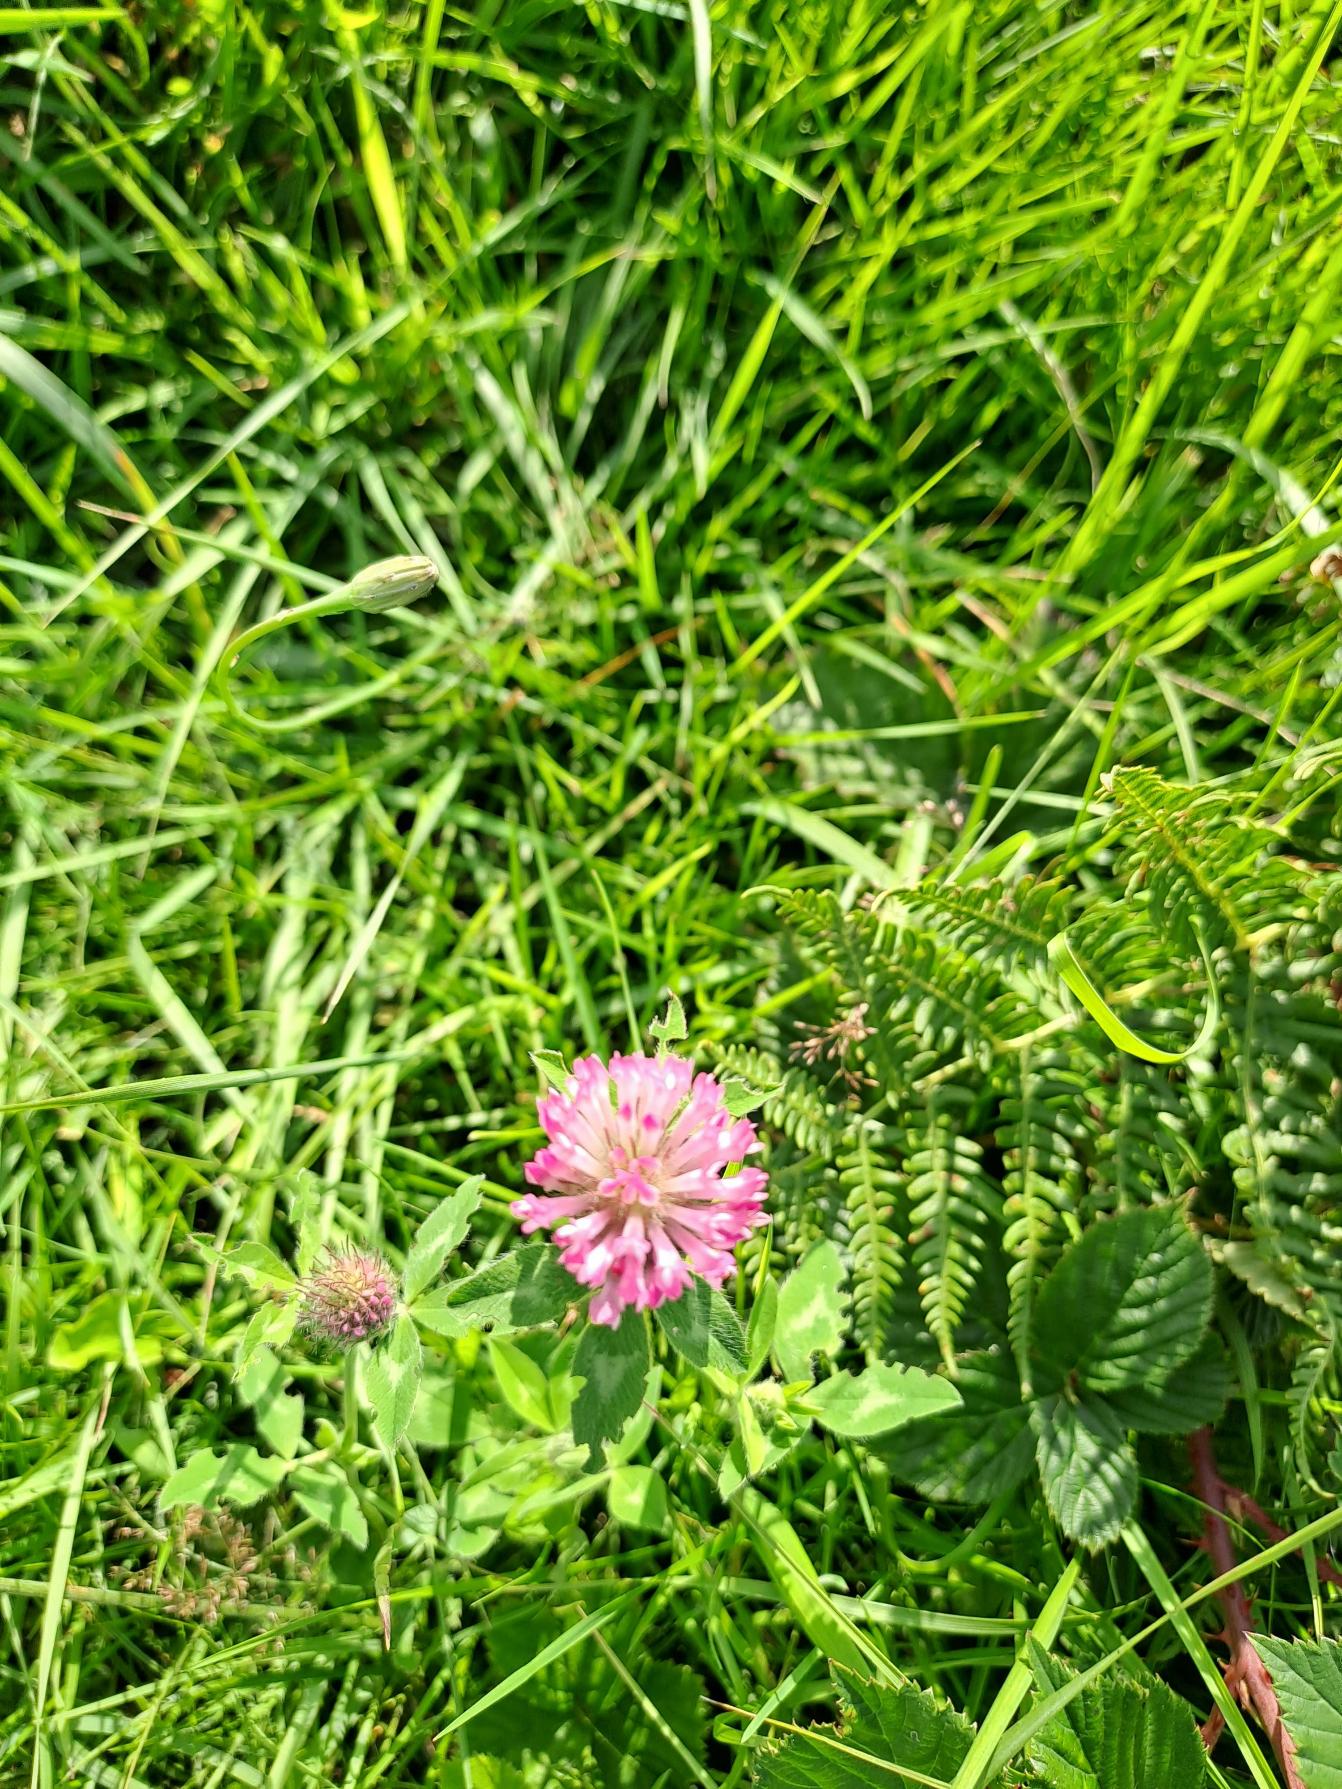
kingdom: Plantae
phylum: Tracheophyta
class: Magnoliopsida
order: Fabales
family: Fabaceae
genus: Trifolium
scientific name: Trifolium pratense
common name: Rød-kløver
